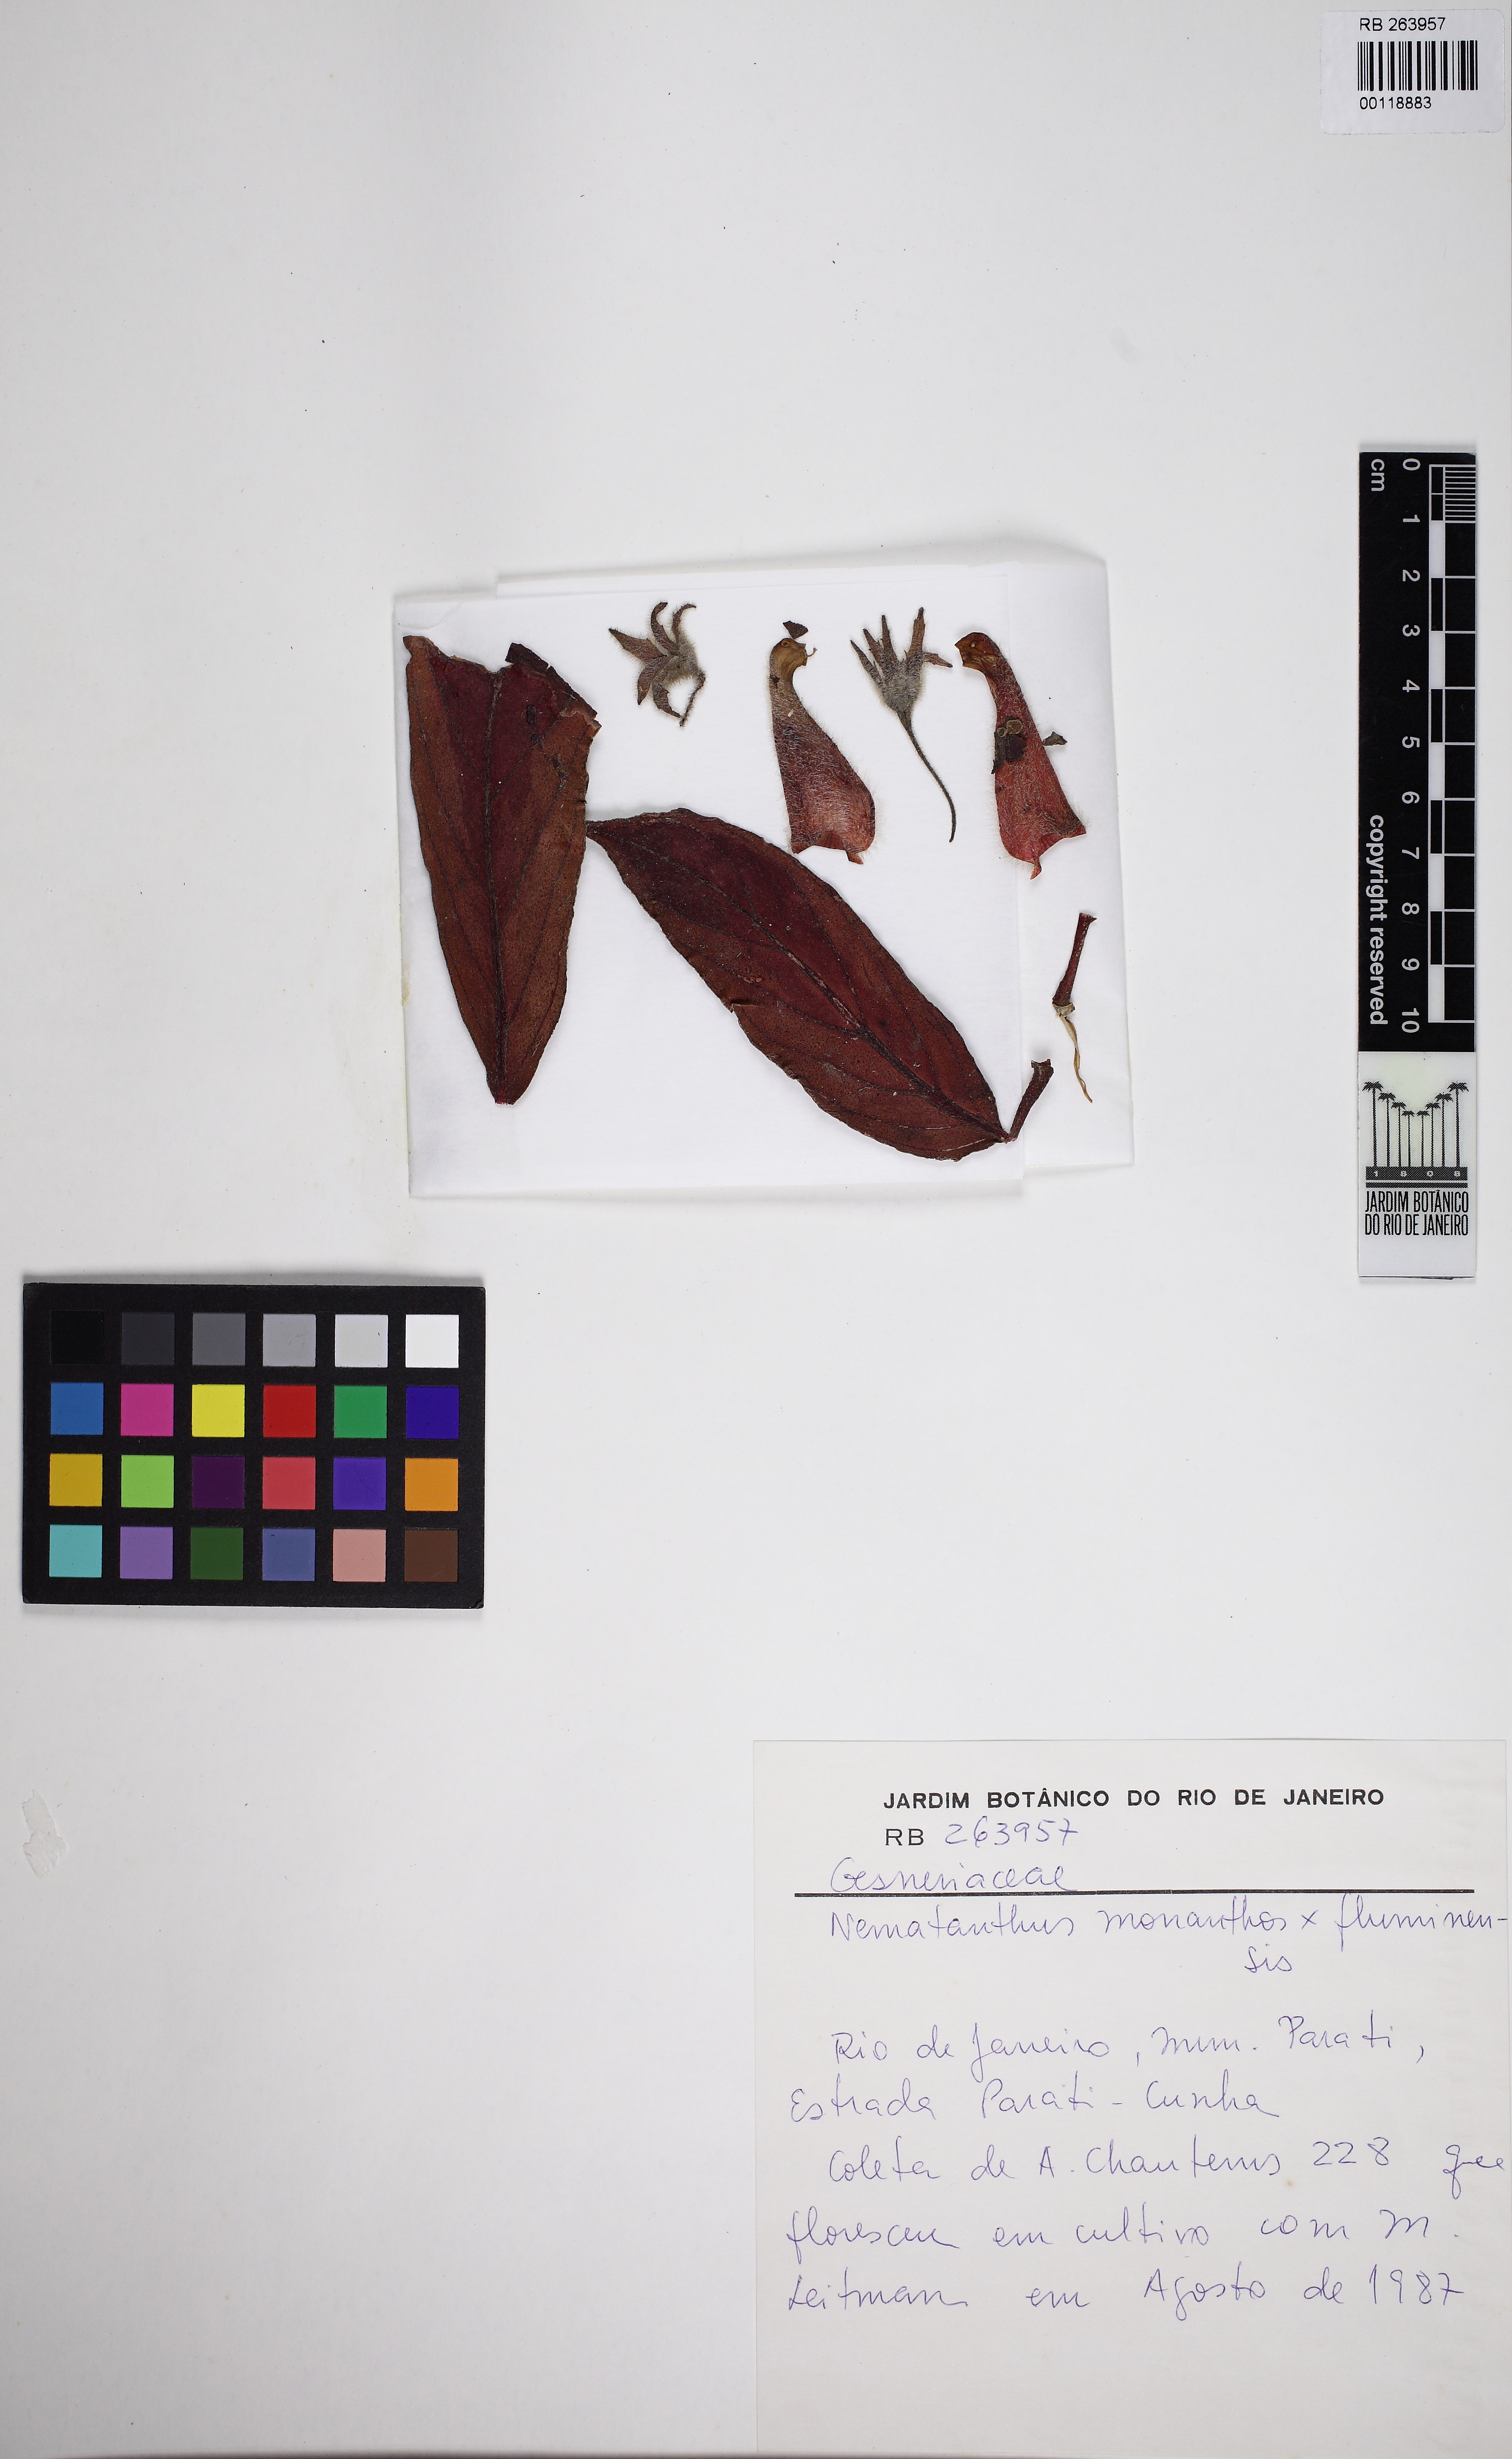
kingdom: Plantae
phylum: Tracheophyta
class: Magnoliopsida
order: Lamiales
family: Gesneriaceae
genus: Nematanthus
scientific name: Nematanthus monanthos
